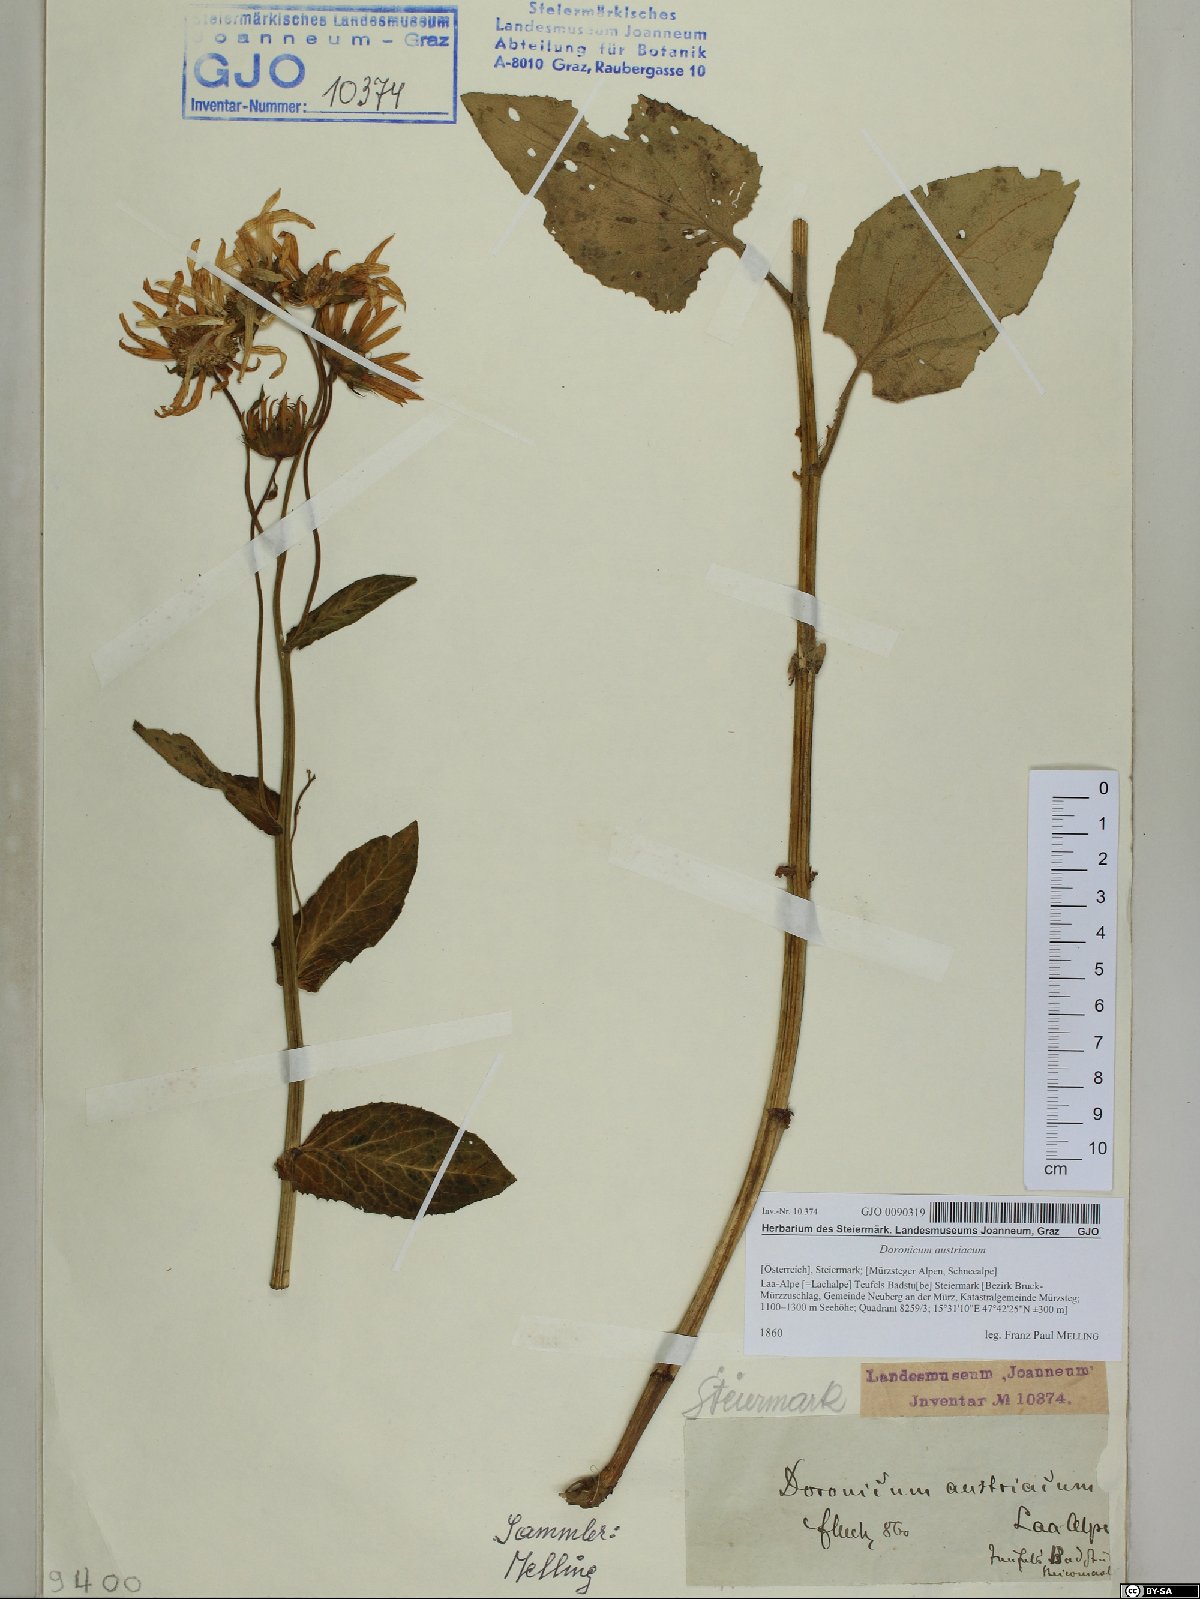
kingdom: Plantae
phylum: Tracheophyta
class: Magnoliopsida
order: Asterales
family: Asteraceae
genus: Doronicum
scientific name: Doronicum austriacum
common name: Austrian leopard's-bane
